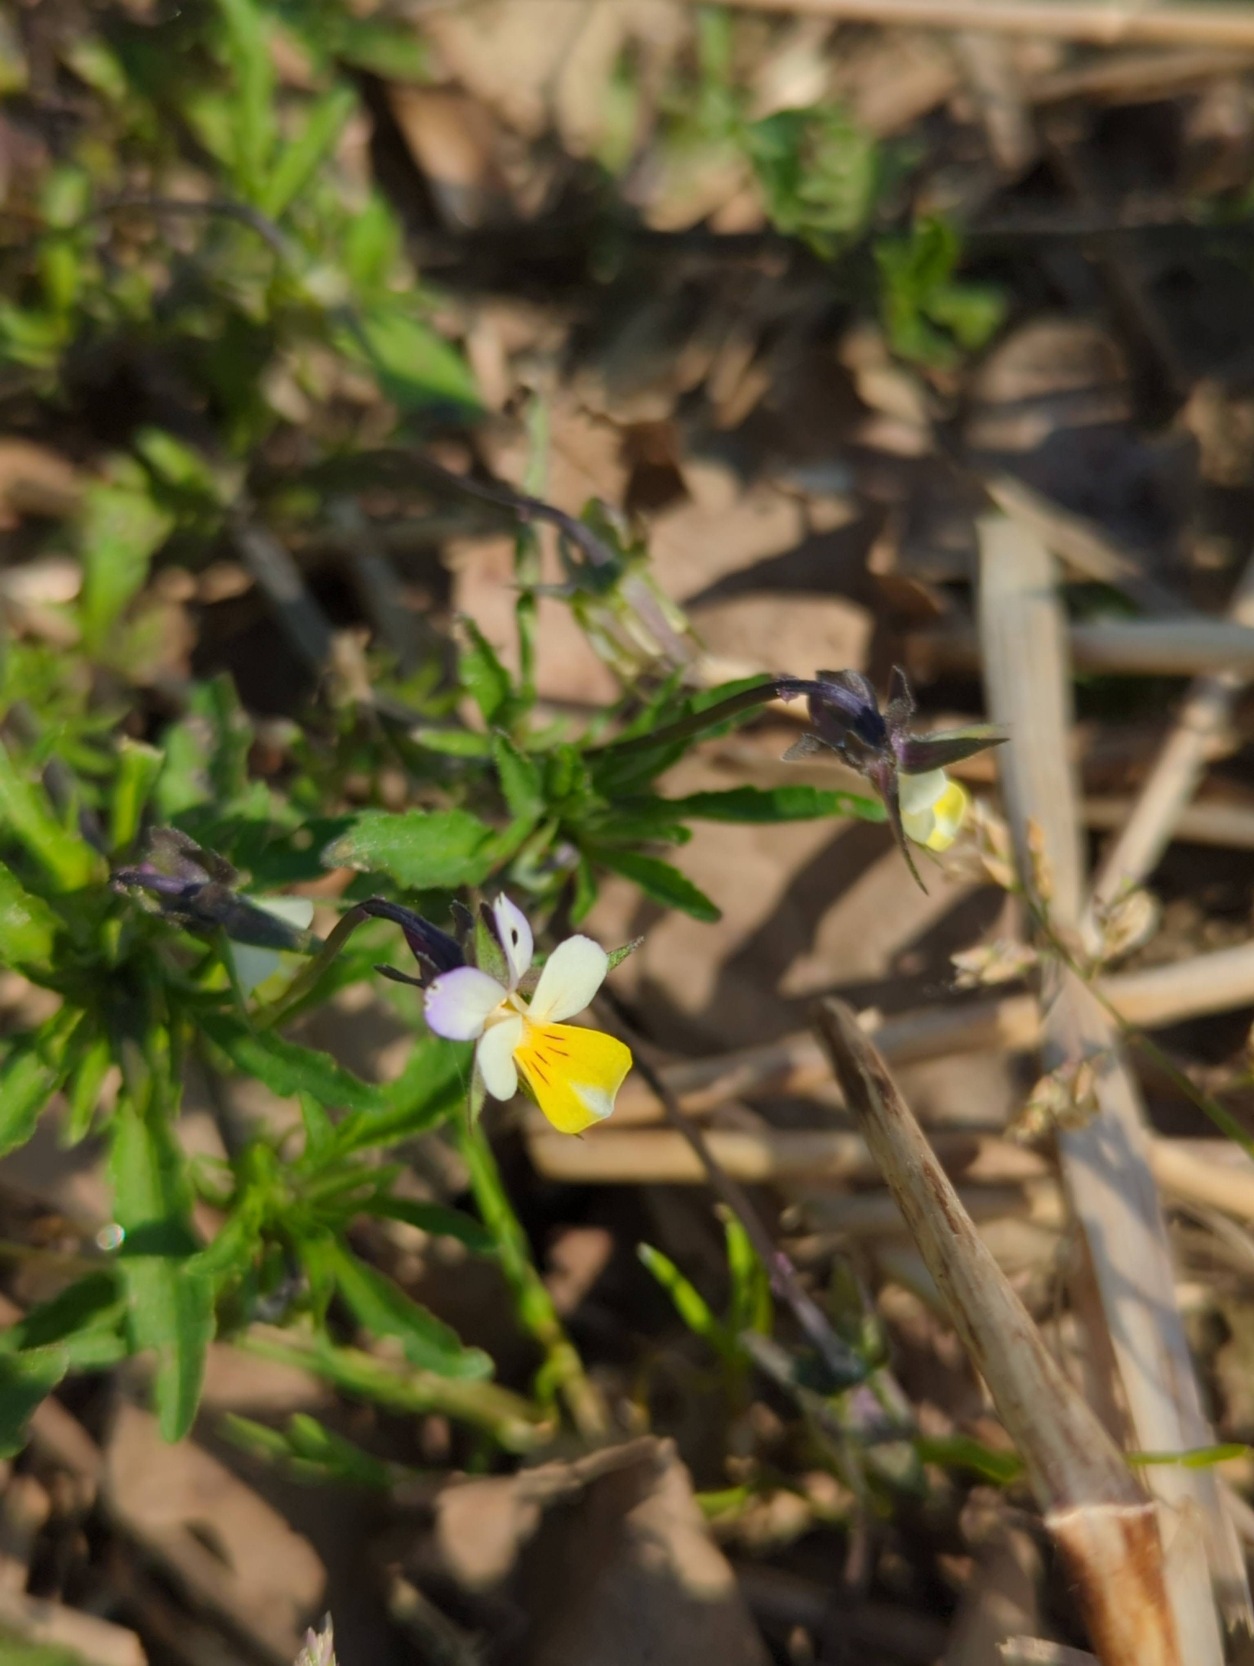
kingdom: Plantae
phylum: Tracheophyta
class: Magnoliopsida
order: Malpighiales
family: Violaceae
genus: Viola
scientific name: Viola arvensis
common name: Ager-stedmoderblomst
